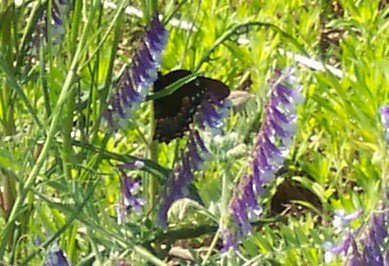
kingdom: Animalia
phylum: Arthropoda
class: Insecta
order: Lepidoptera
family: Papilionidae
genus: Papilio
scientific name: Papilio
